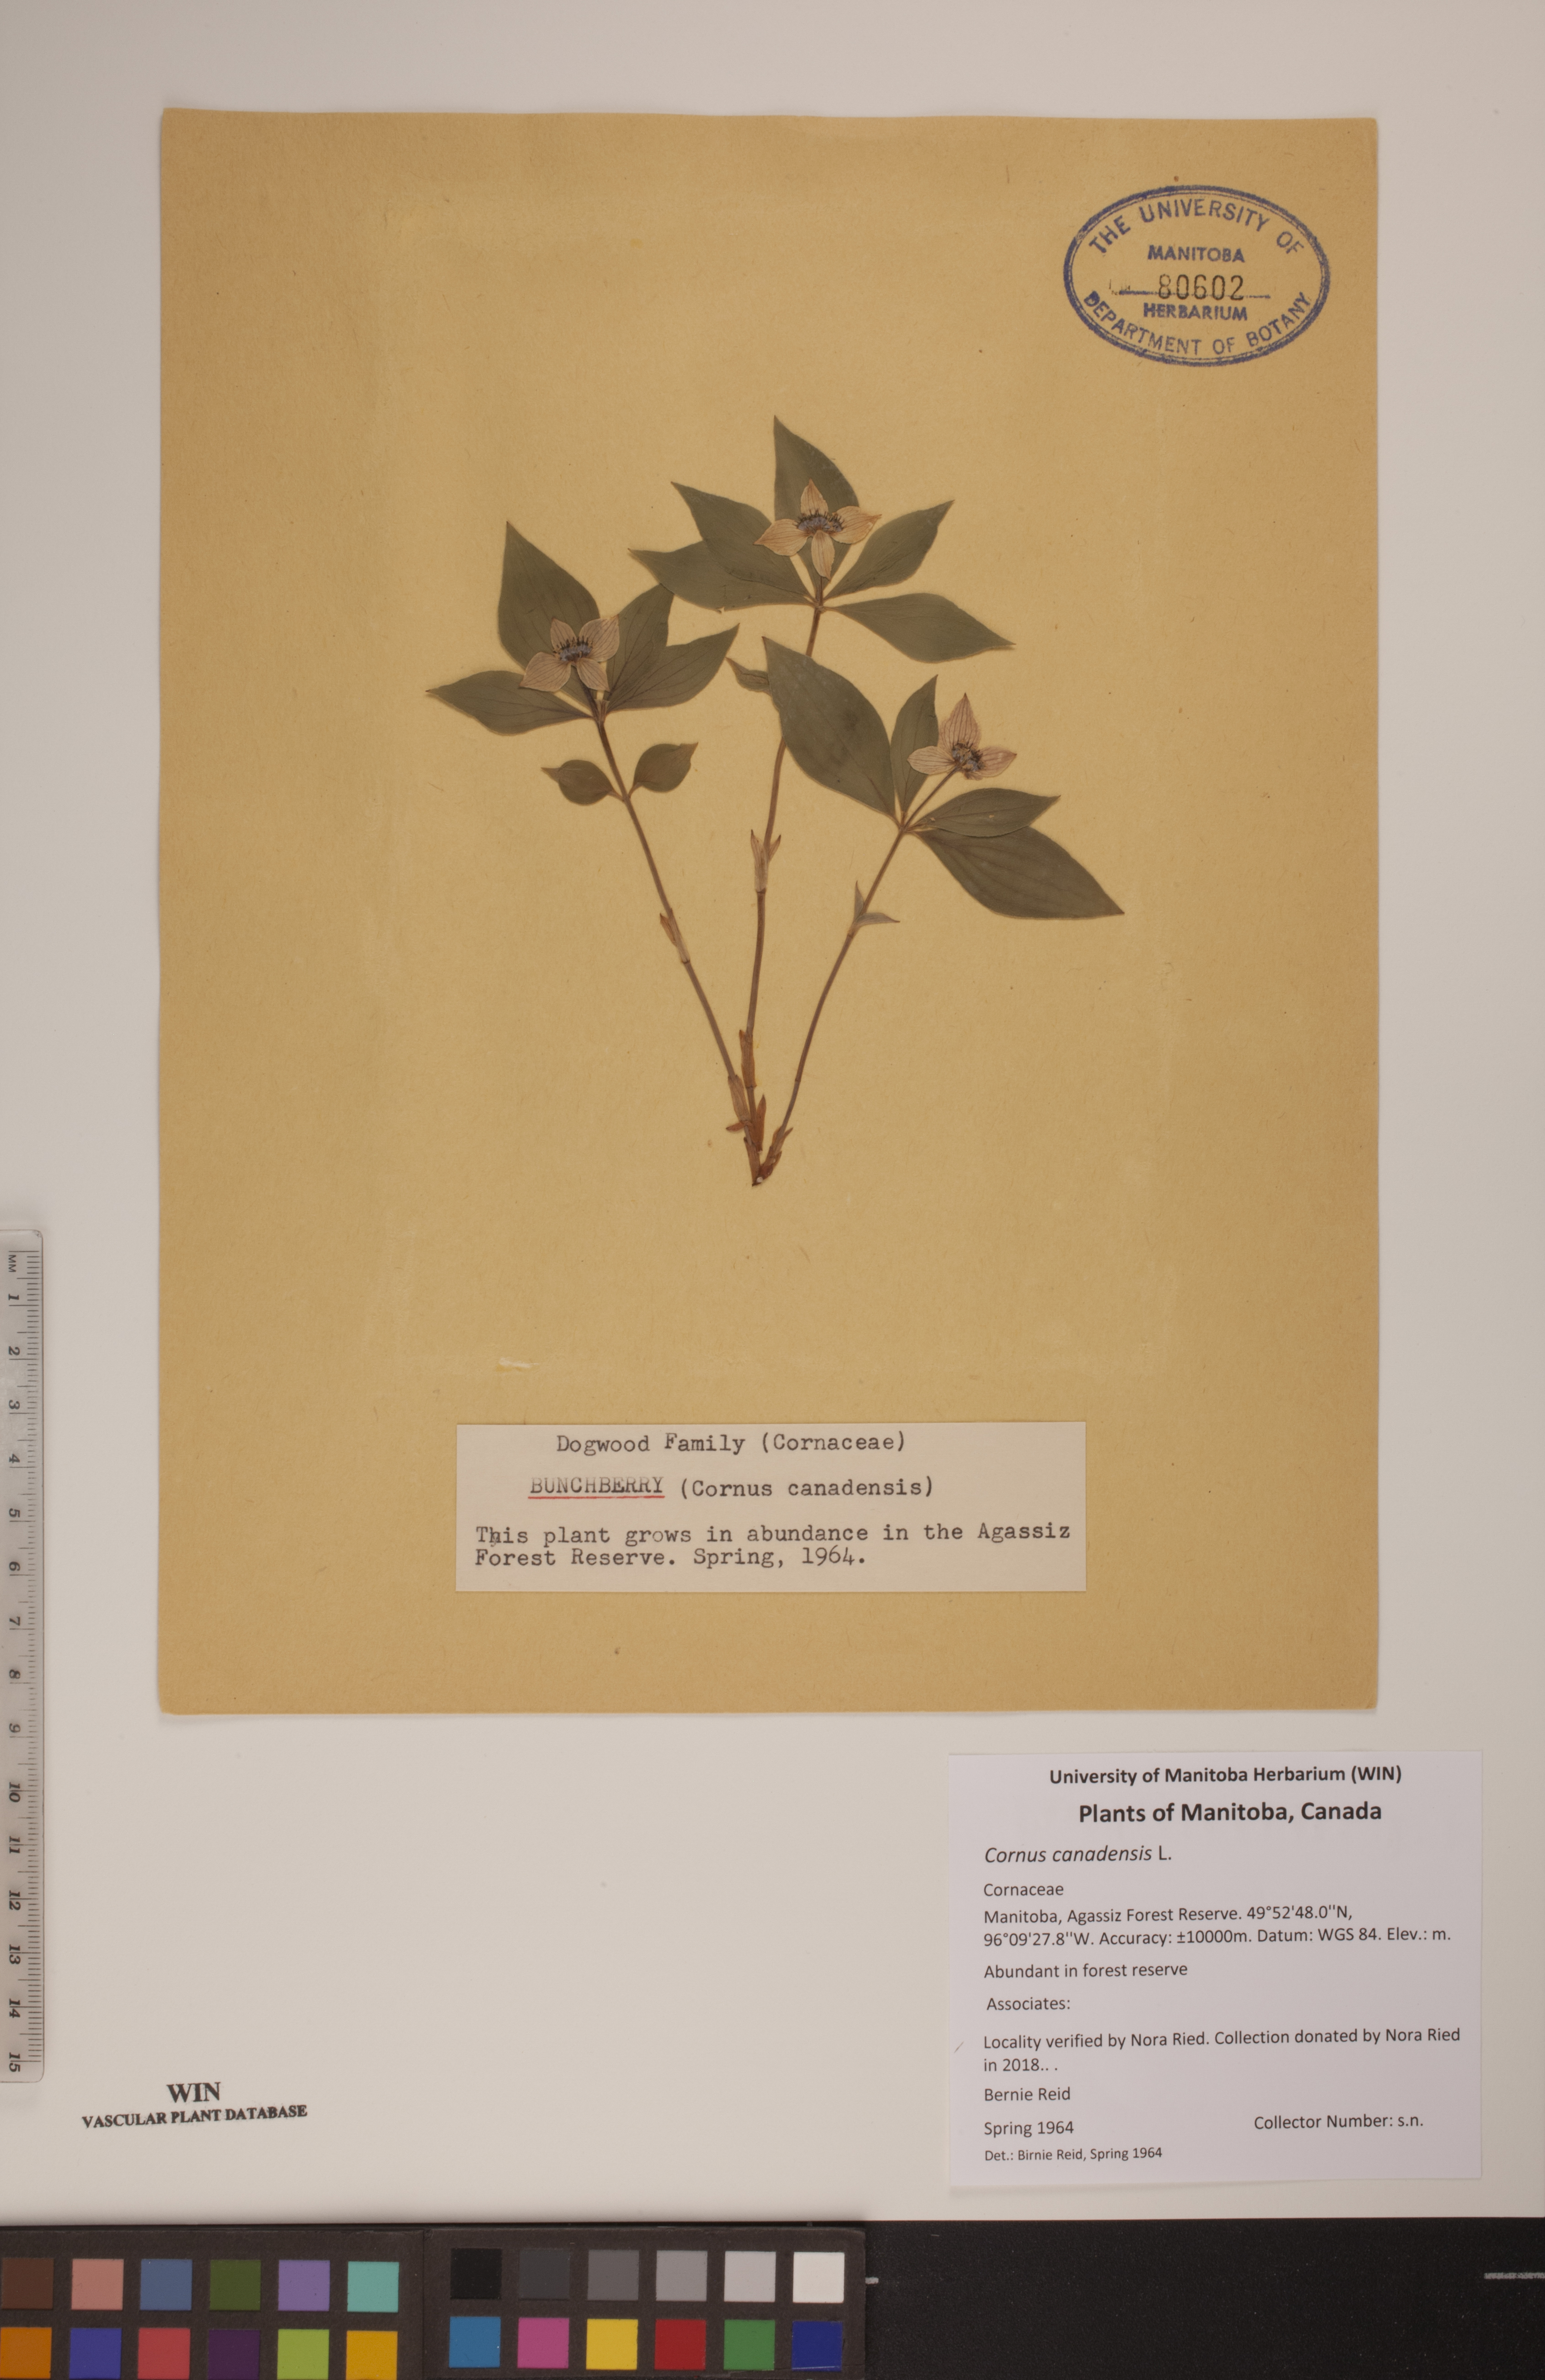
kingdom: Plantae
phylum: Tracheophyta
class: Magnoliopsida
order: Cornales
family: Cornaceae
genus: Cornus
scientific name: Cornus canadensis
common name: Creeping dogwood
